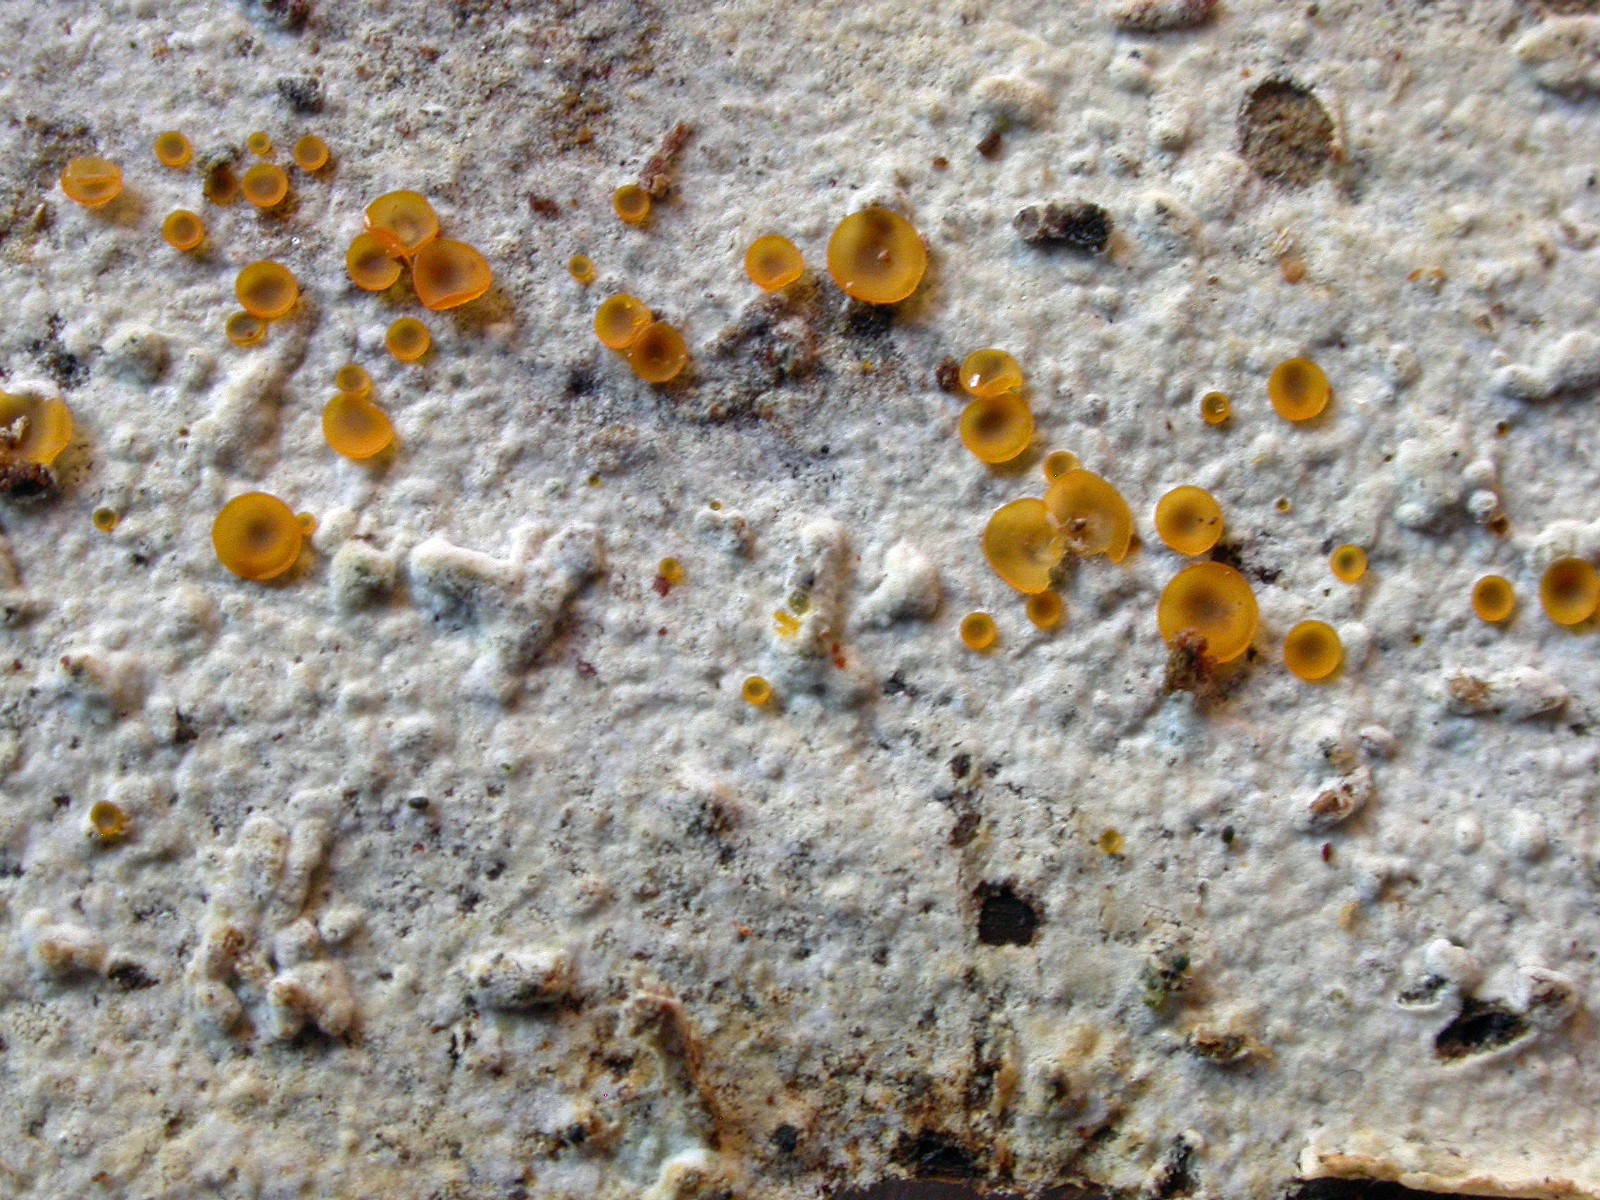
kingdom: Fungi
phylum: Basidiomycota
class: Agaricomycetes
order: Cantharellales
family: Botryobasidiaceae
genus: Botryobasidium
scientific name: Botryobasidium subcoronatum
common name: almindelig spindhinde
